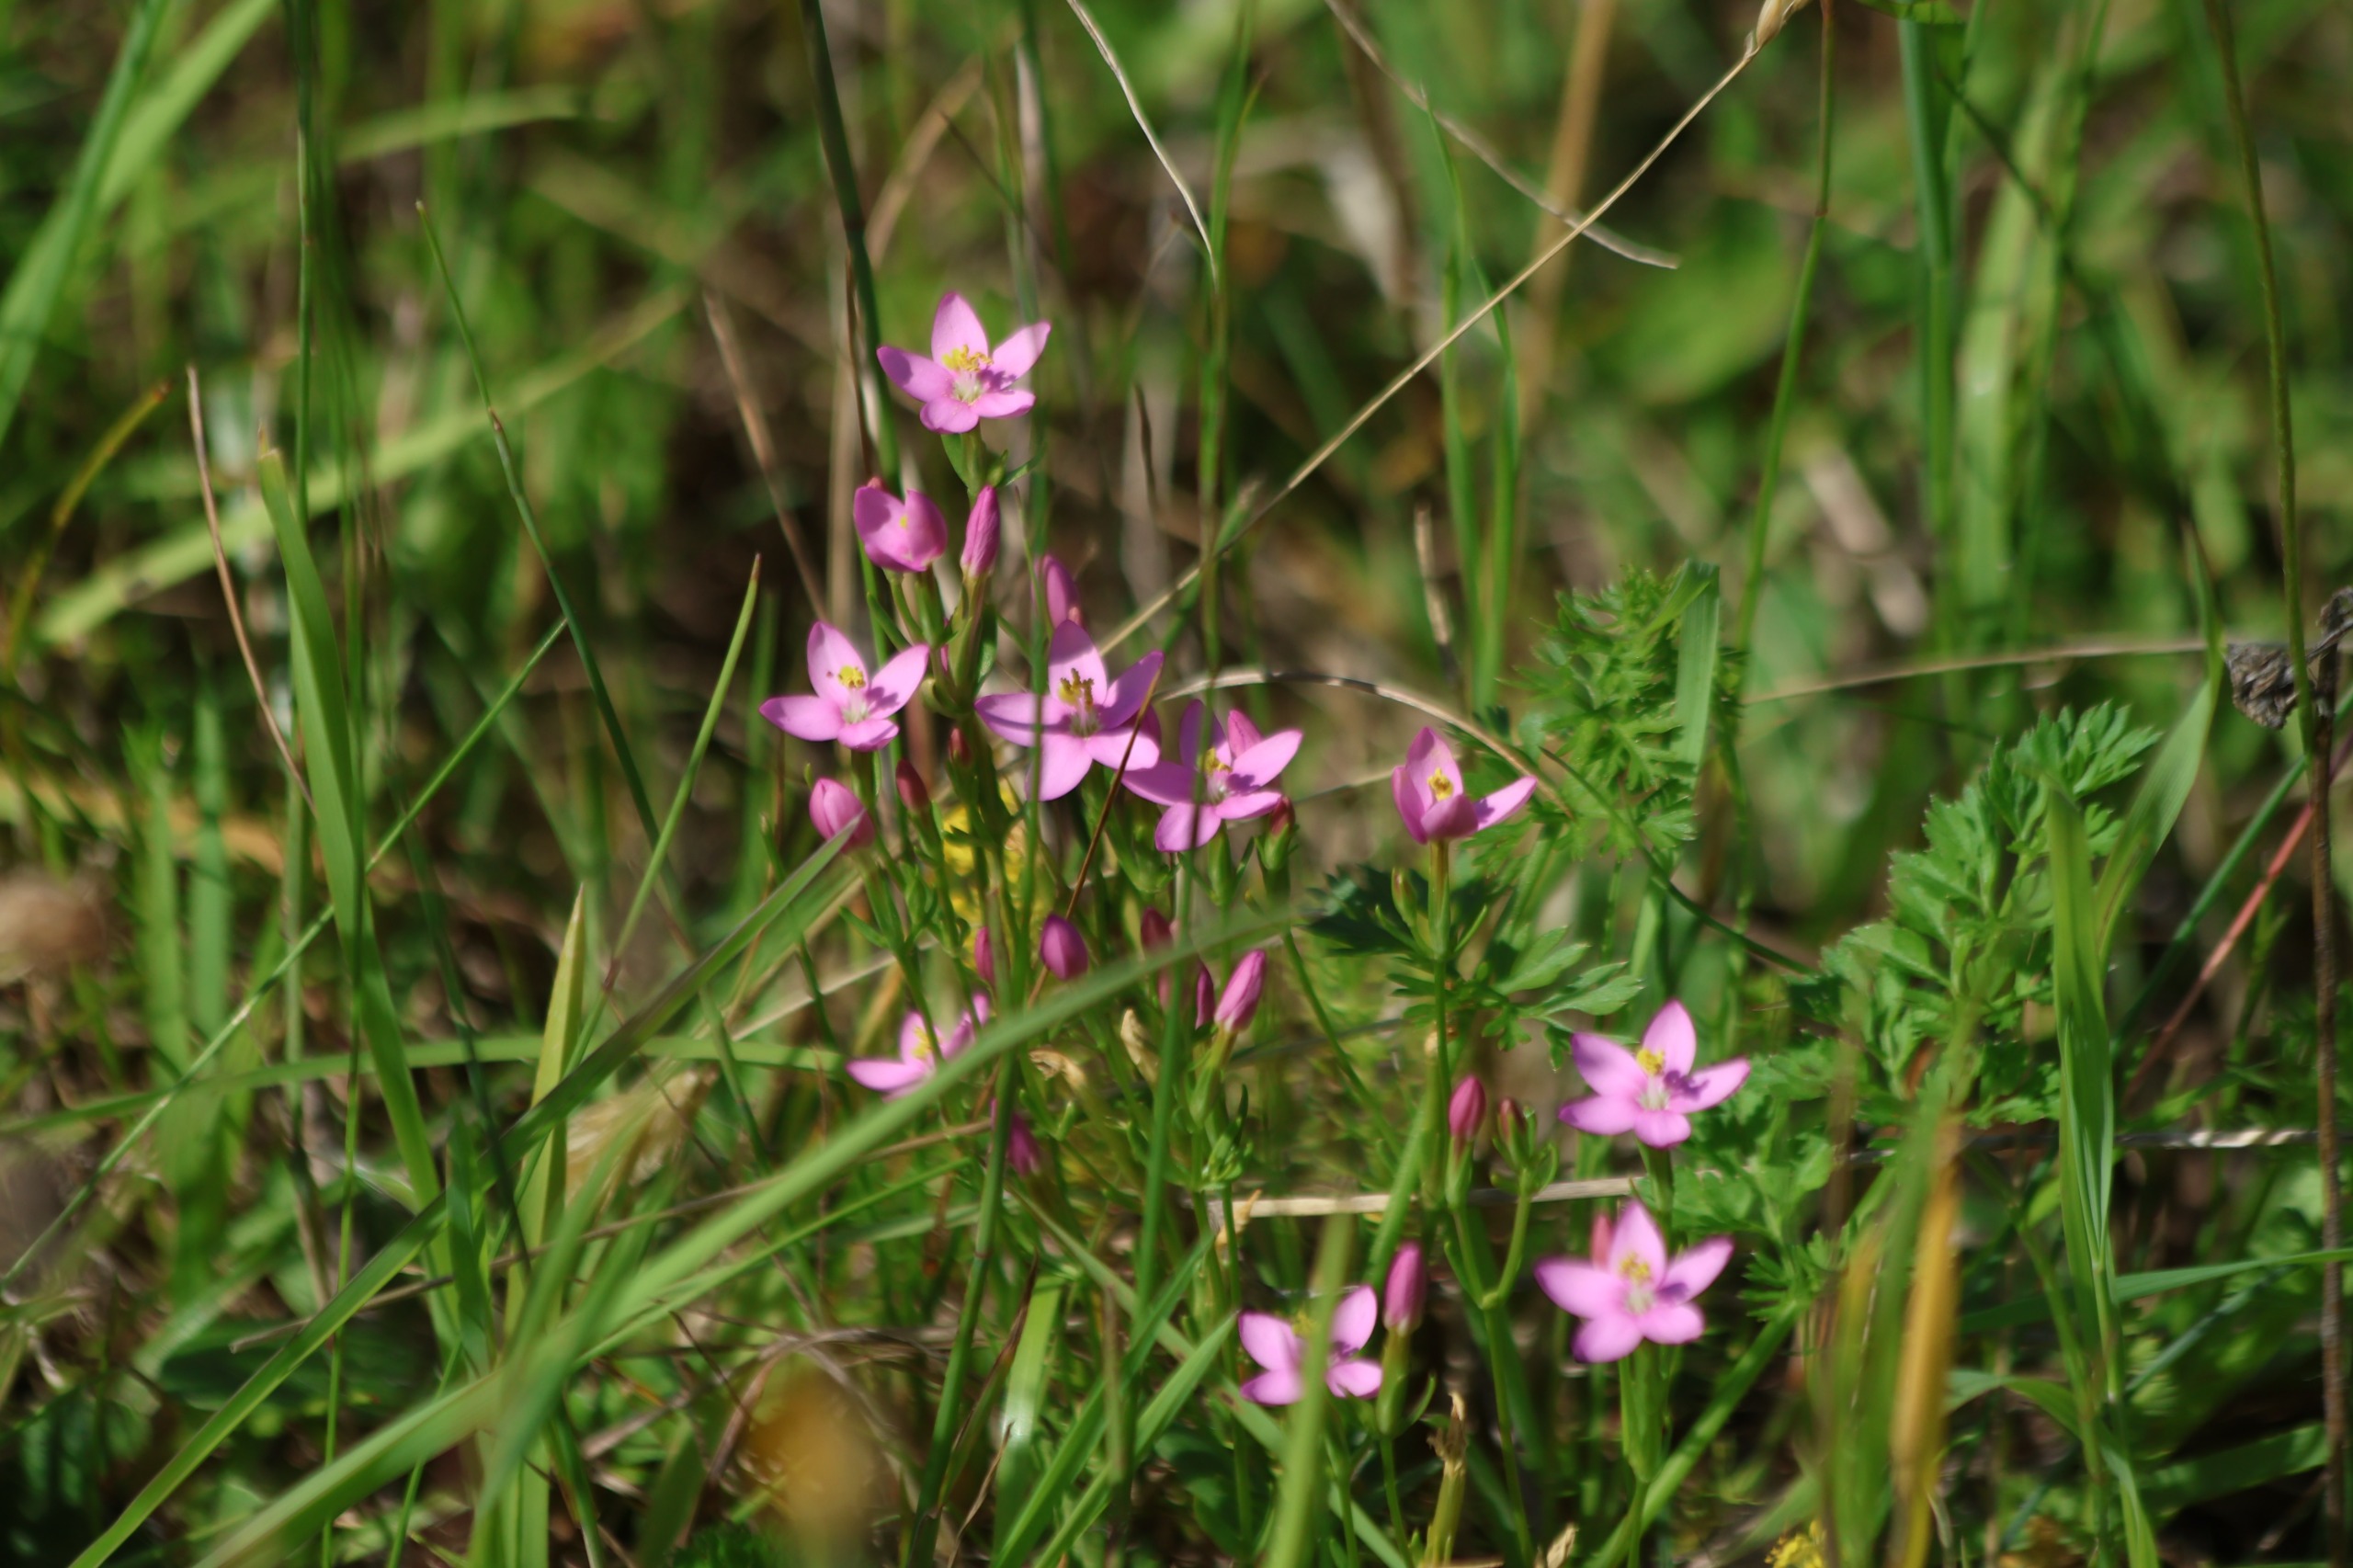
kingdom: Plantae
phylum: Tracheophyta
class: Magnoliopsida
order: Gentianales
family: Gentianaceae
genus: Centaurium
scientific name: Centaurium erythraea
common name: Mark-tusindgylden
